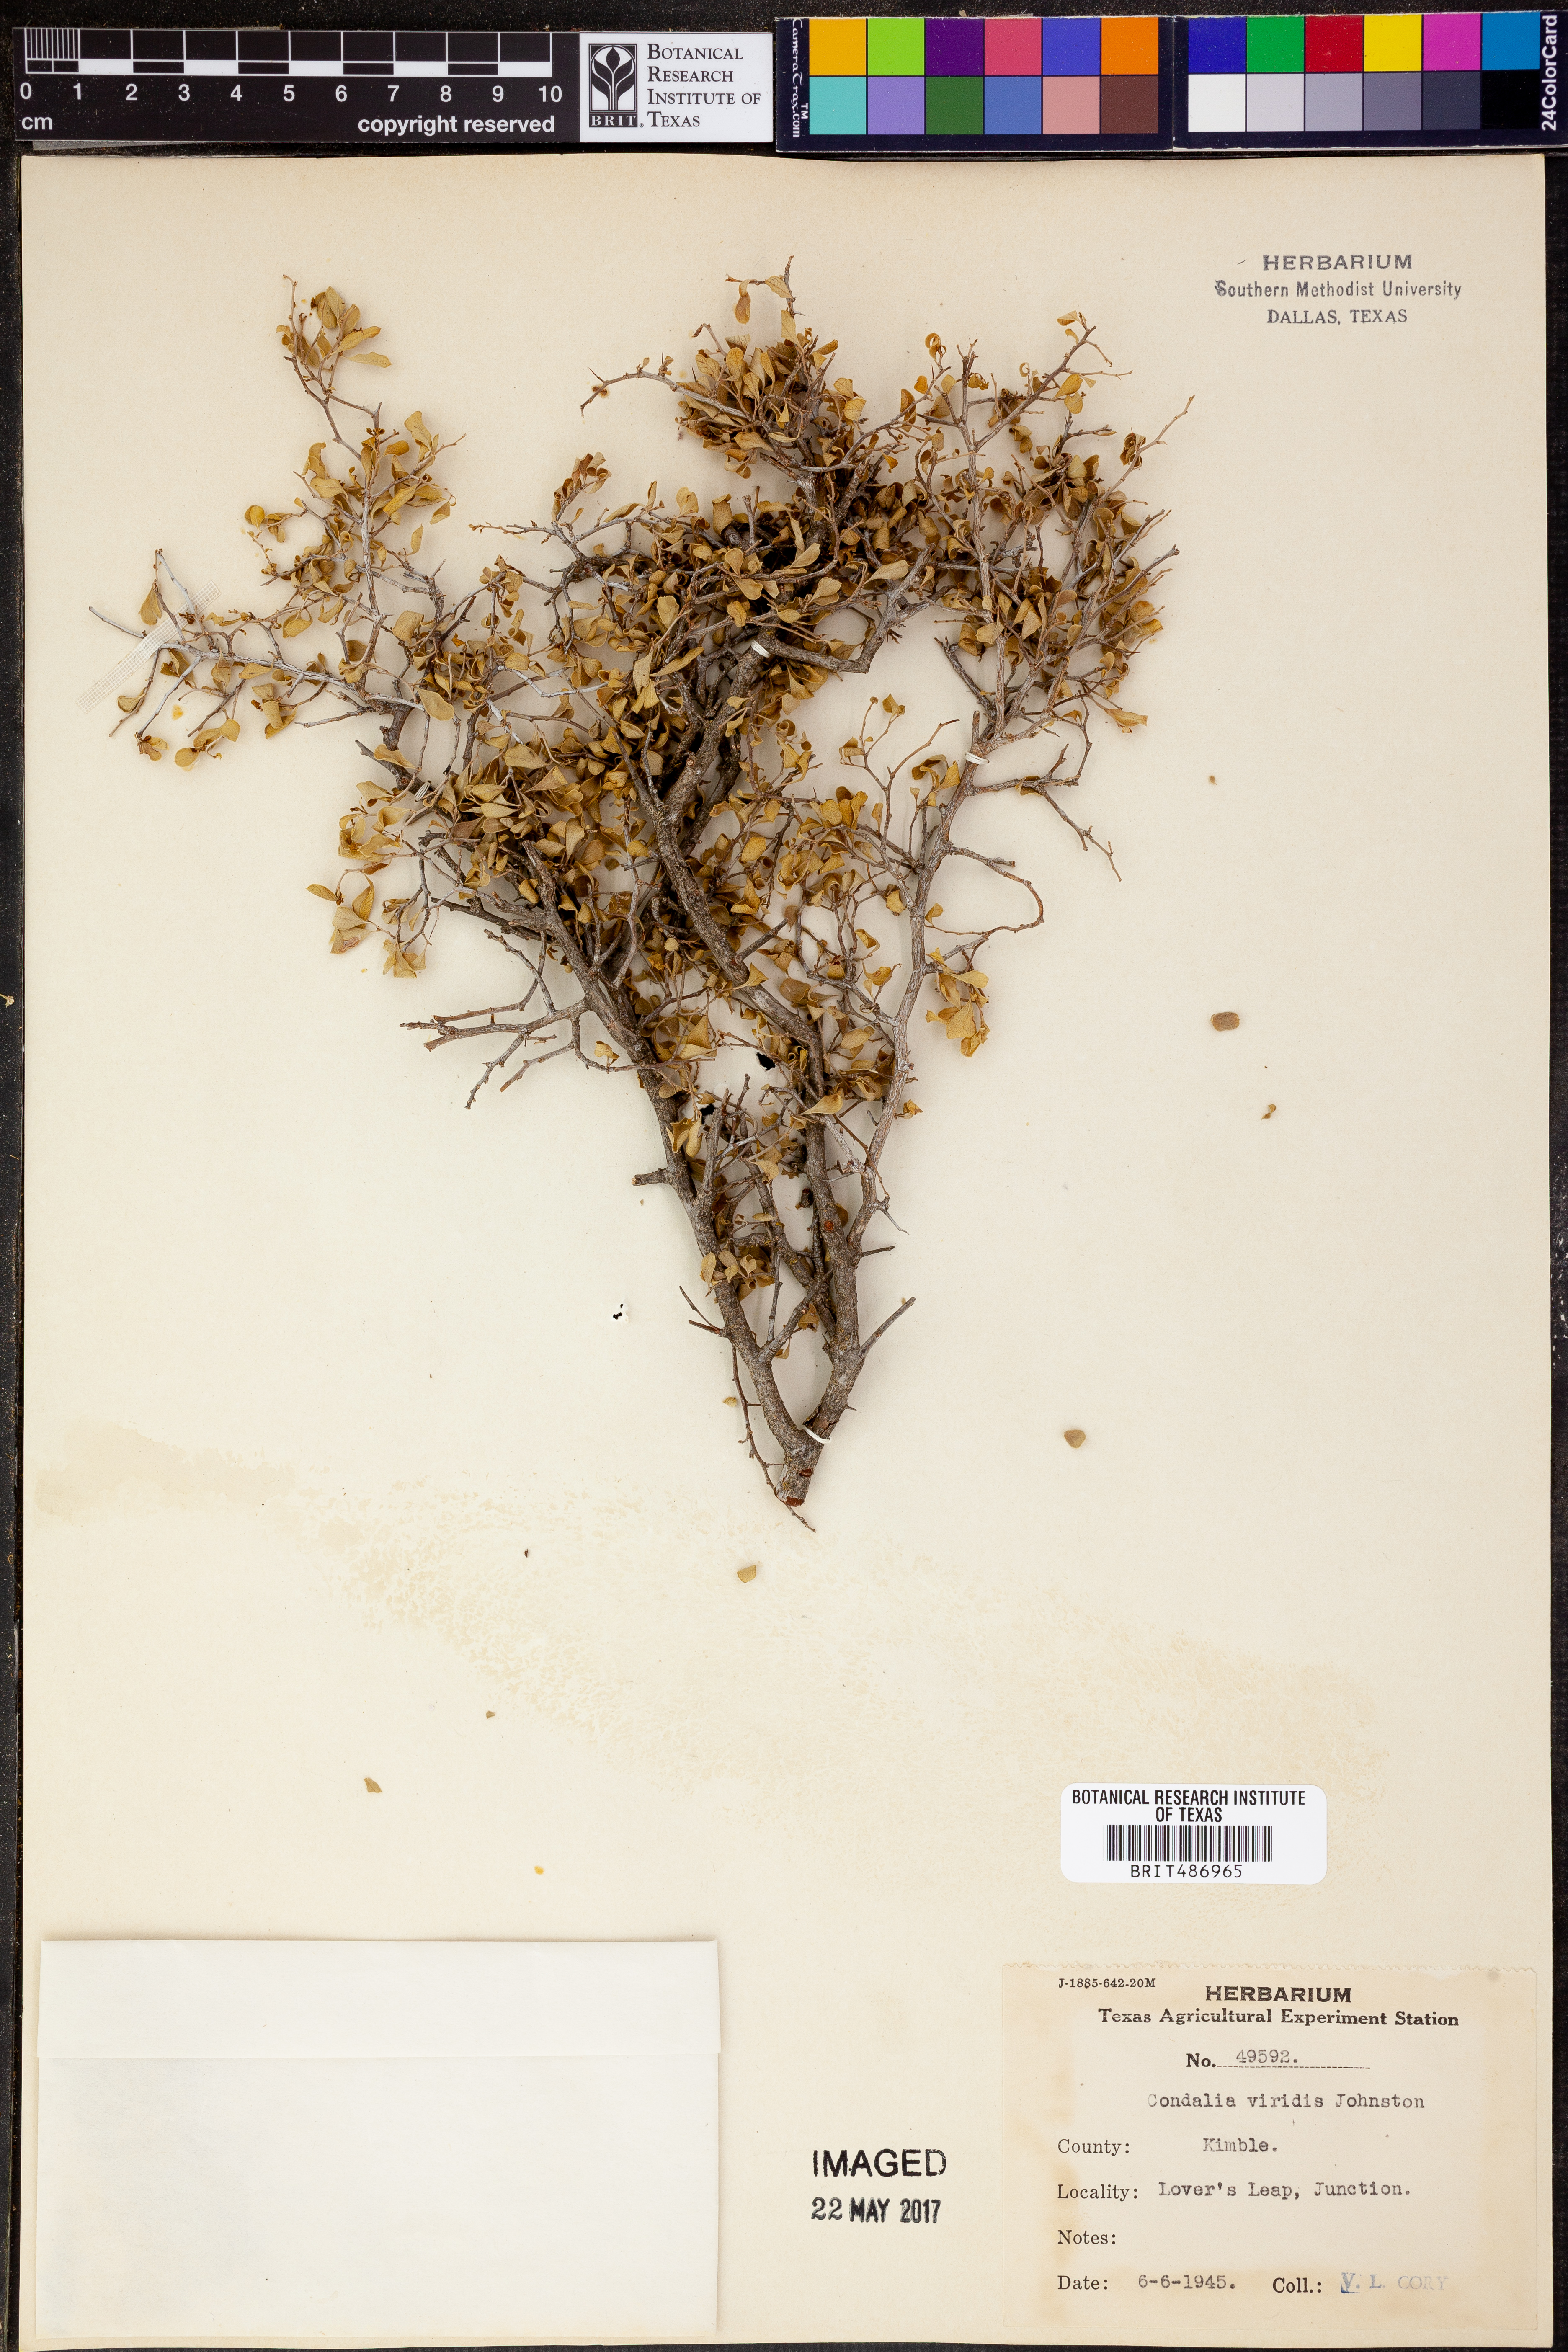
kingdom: Plantae
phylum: Tracheophyta
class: Magnoliopsida
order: Rosales
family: Rhamnaceae
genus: Condalia
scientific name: Condalia viridis
